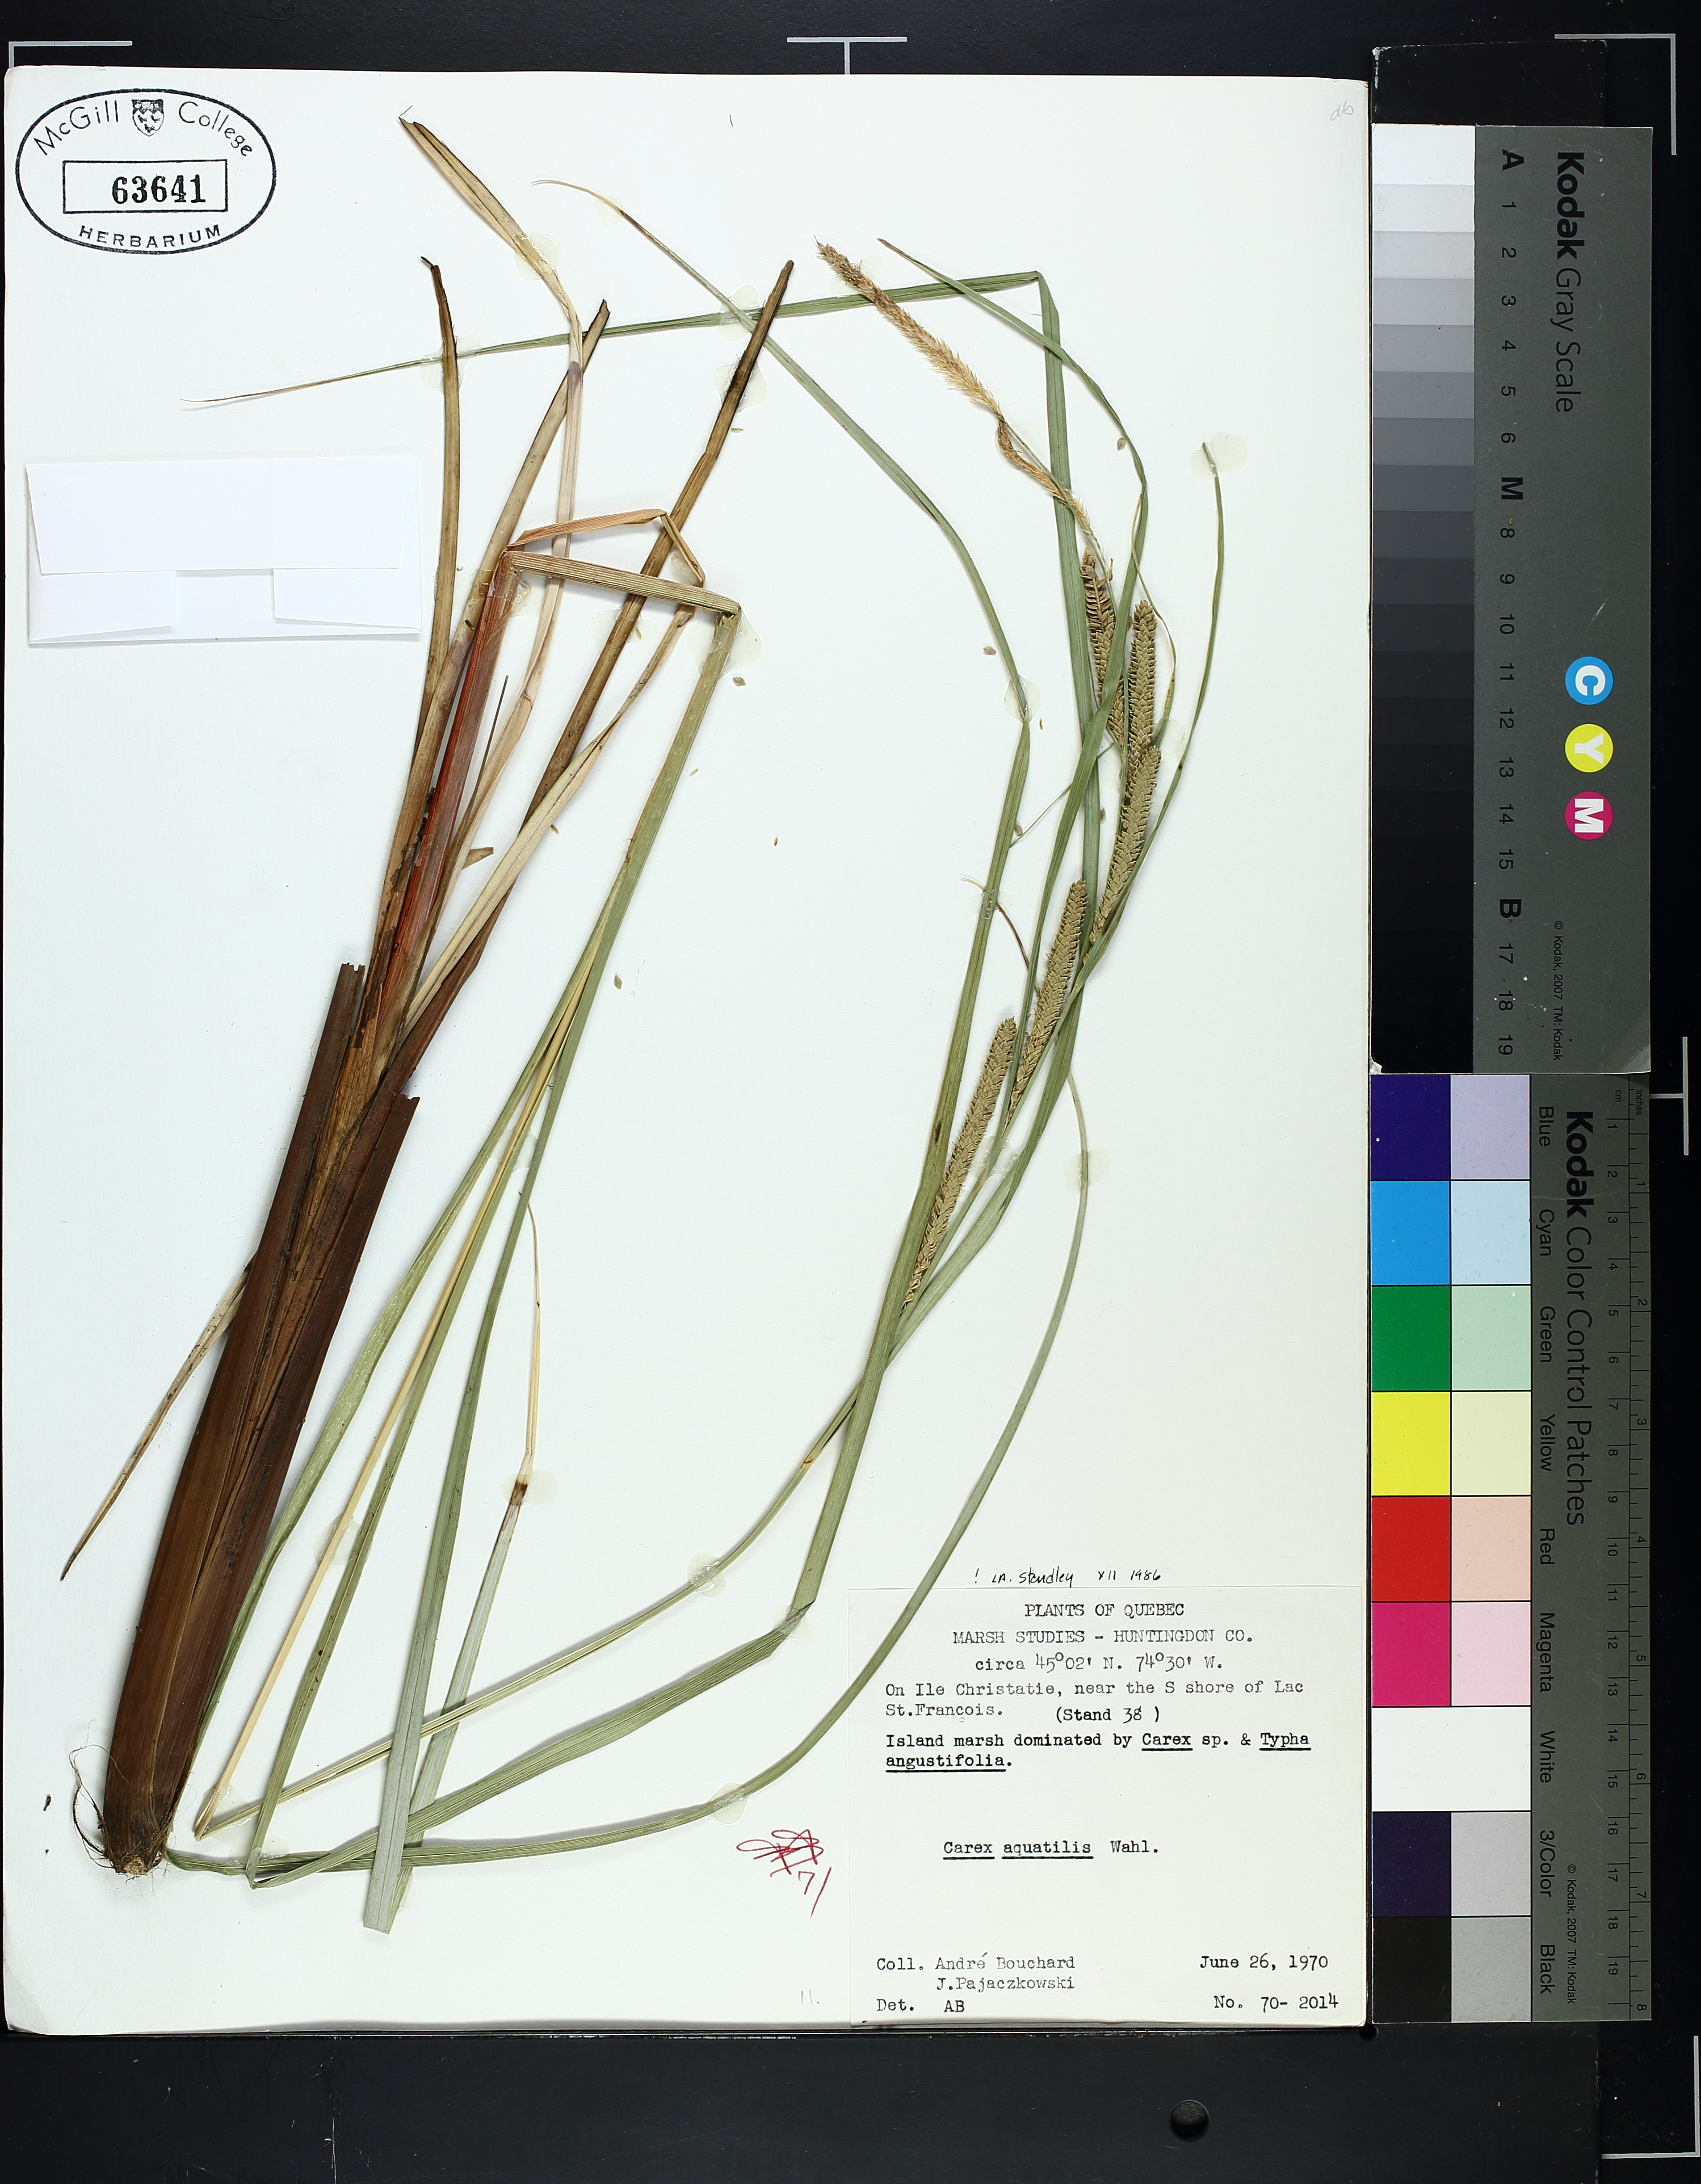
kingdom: Plantae
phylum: Tracheophyta
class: Liliopsida
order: Poales
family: Cyperaceae
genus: Carex
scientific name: Carex aquatilis
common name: Water sedge
